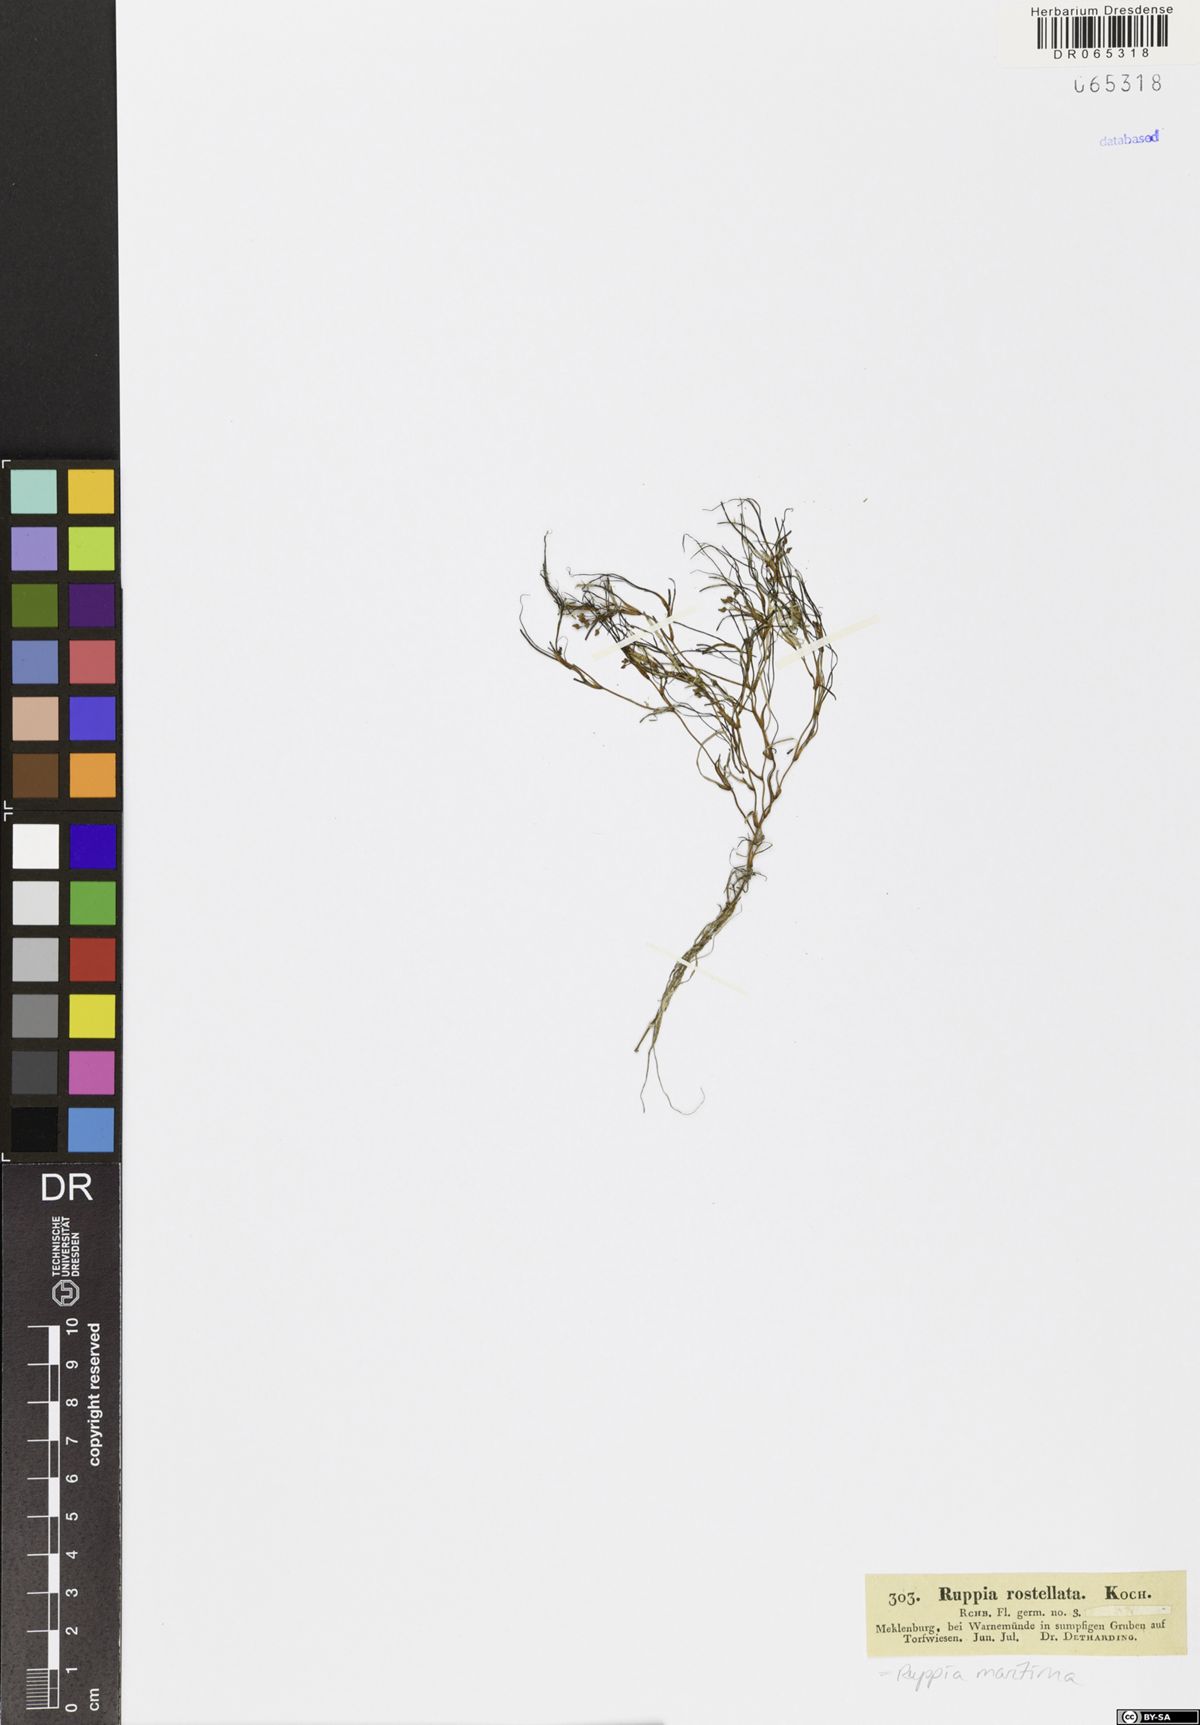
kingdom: Plantae
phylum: Tracheophyta
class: Liliopsida
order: Alismatales
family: Ruppiaceae
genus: Ruppia
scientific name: Ruppia maritima
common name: Beaked tasselweed
